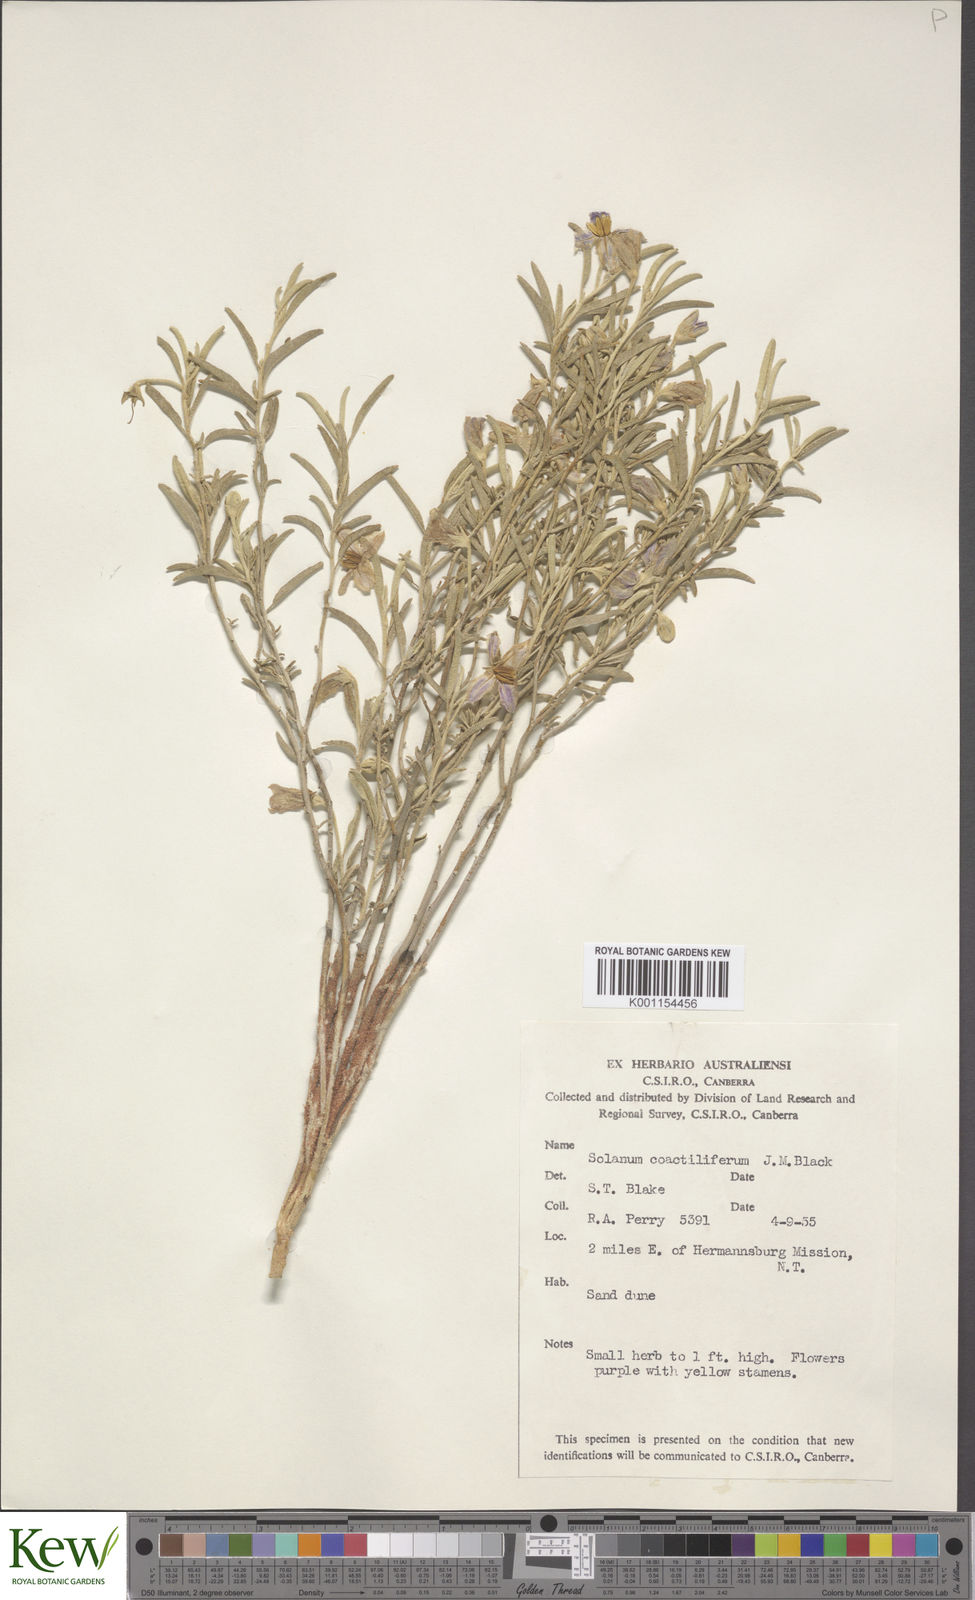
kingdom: Plantae
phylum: Tracheophyta
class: Magnoliopsida
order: Solanales
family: Solanaceae
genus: Solanum
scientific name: Solanum coactiliferum
